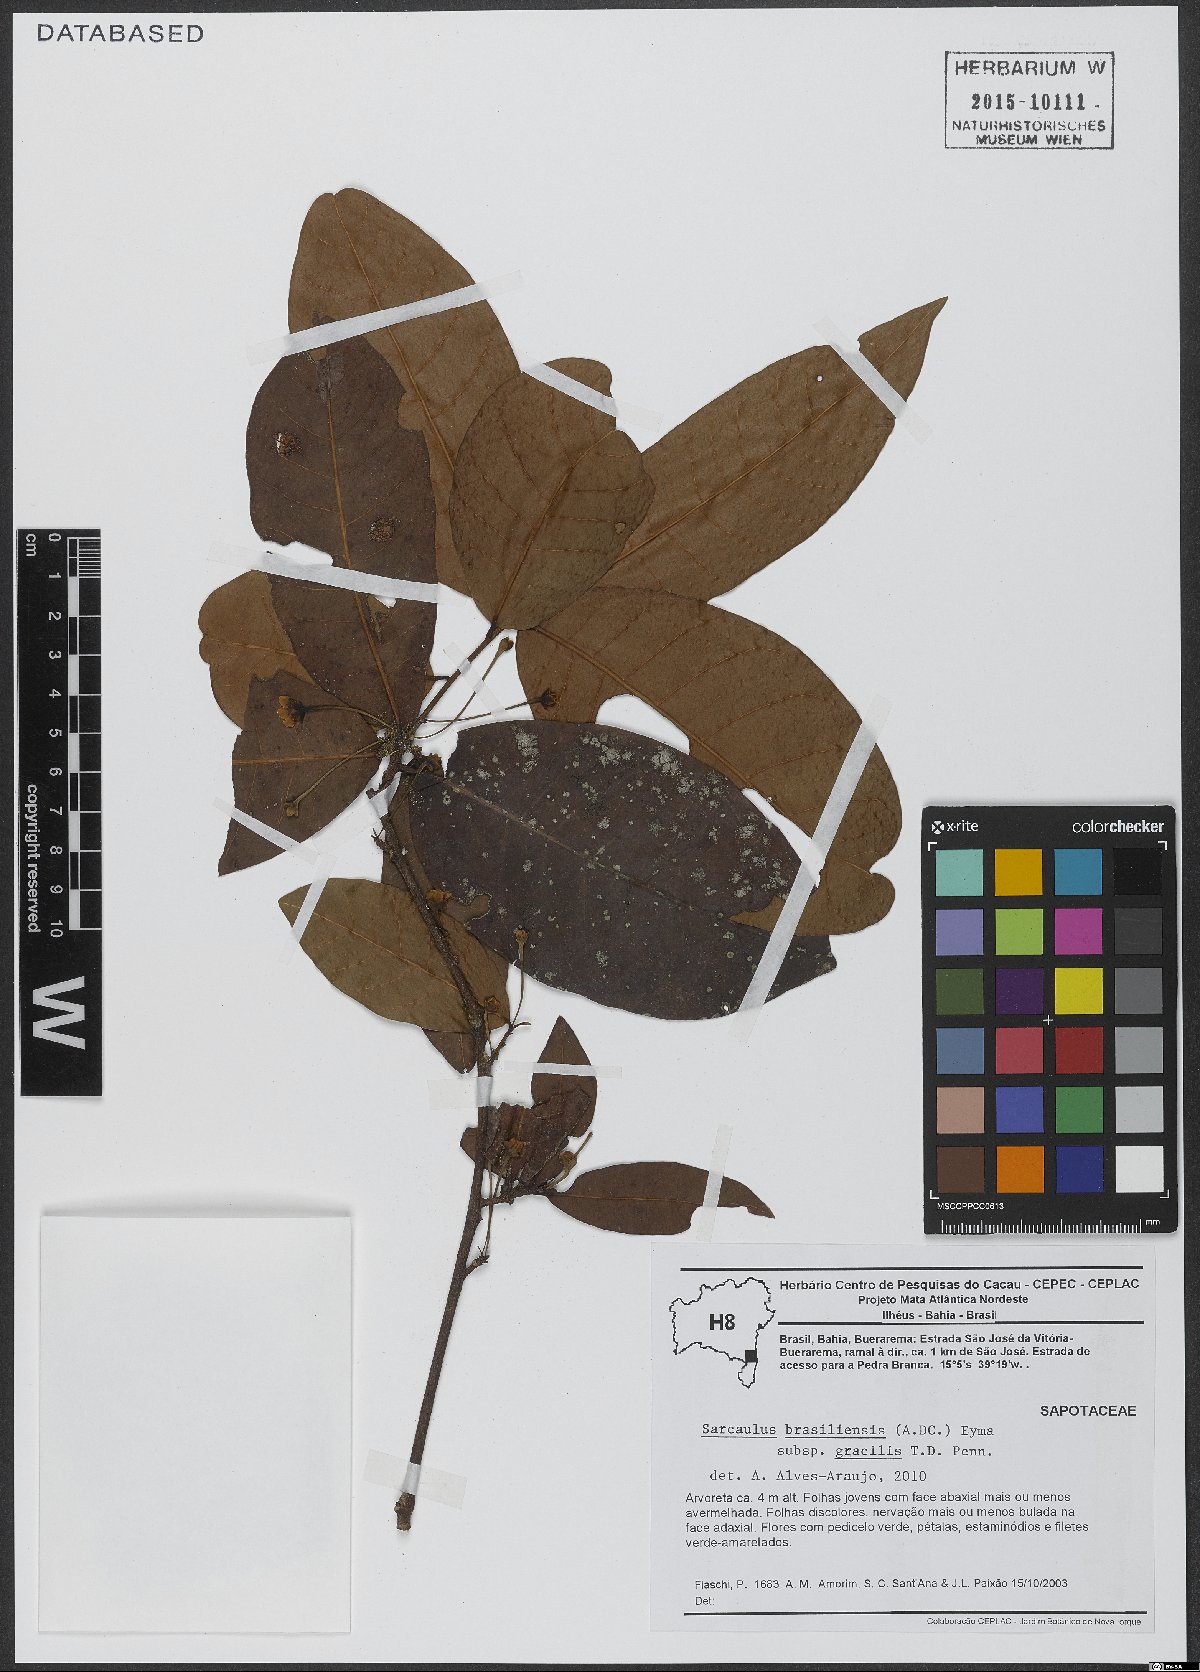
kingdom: Plantae
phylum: Tracheophyta
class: Magnoliopsida
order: Ericales
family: Sapotaceae
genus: Sarcaulus
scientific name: Sarcaulus brasiliensis
